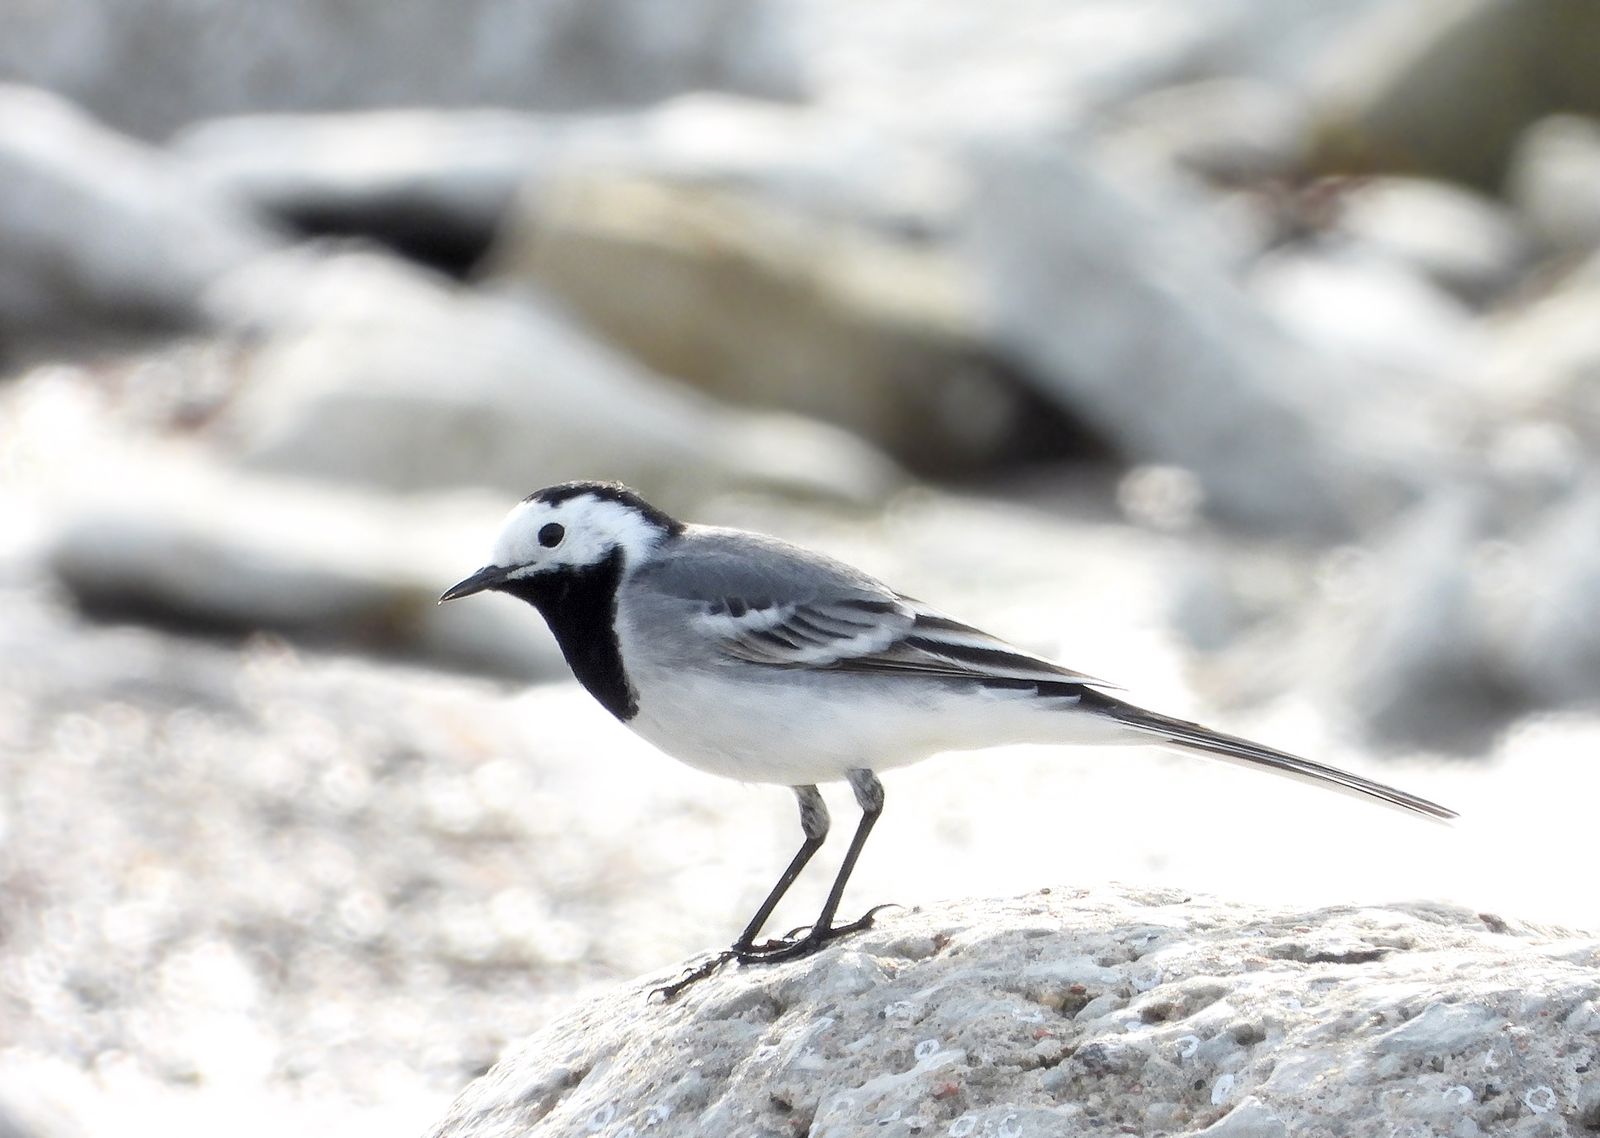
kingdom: Animalia
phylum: Chordata
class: Aves
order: Passeriformes
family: Motacillidae
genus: Motacilla
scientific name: Motacilla alba
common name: White wagtail
